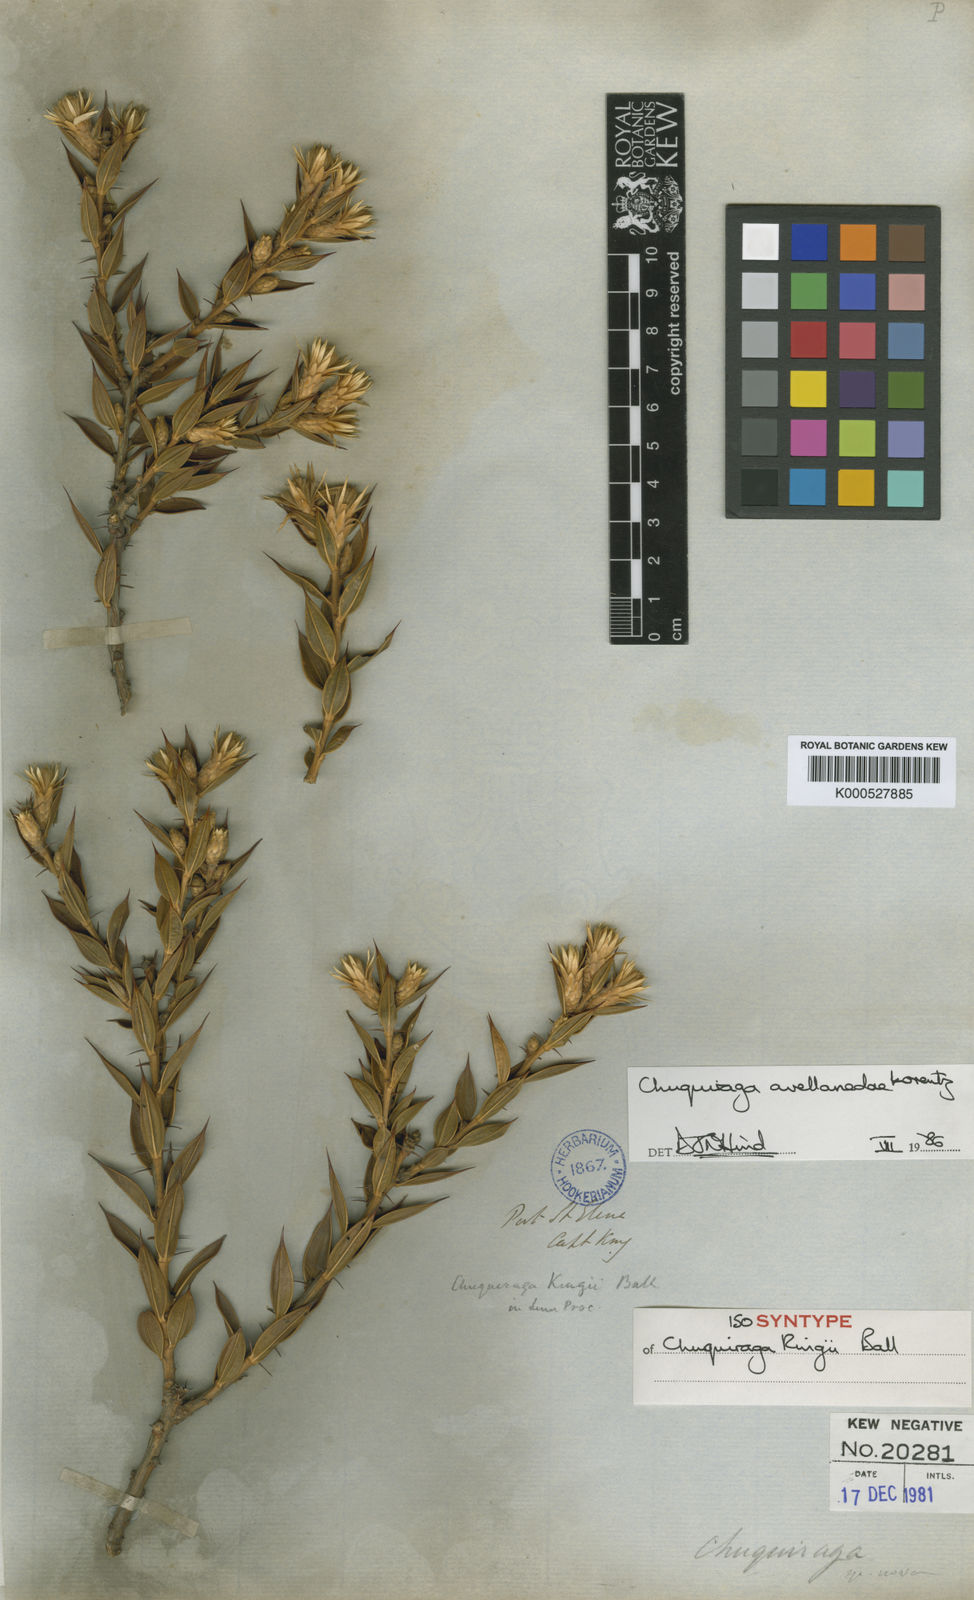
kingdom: Plantae
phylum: Tracheophyta
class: Magnoliopsida
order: Asterales
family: Asteraceae
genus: Chuquiraga
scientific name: Chuquiraga avellanedae
